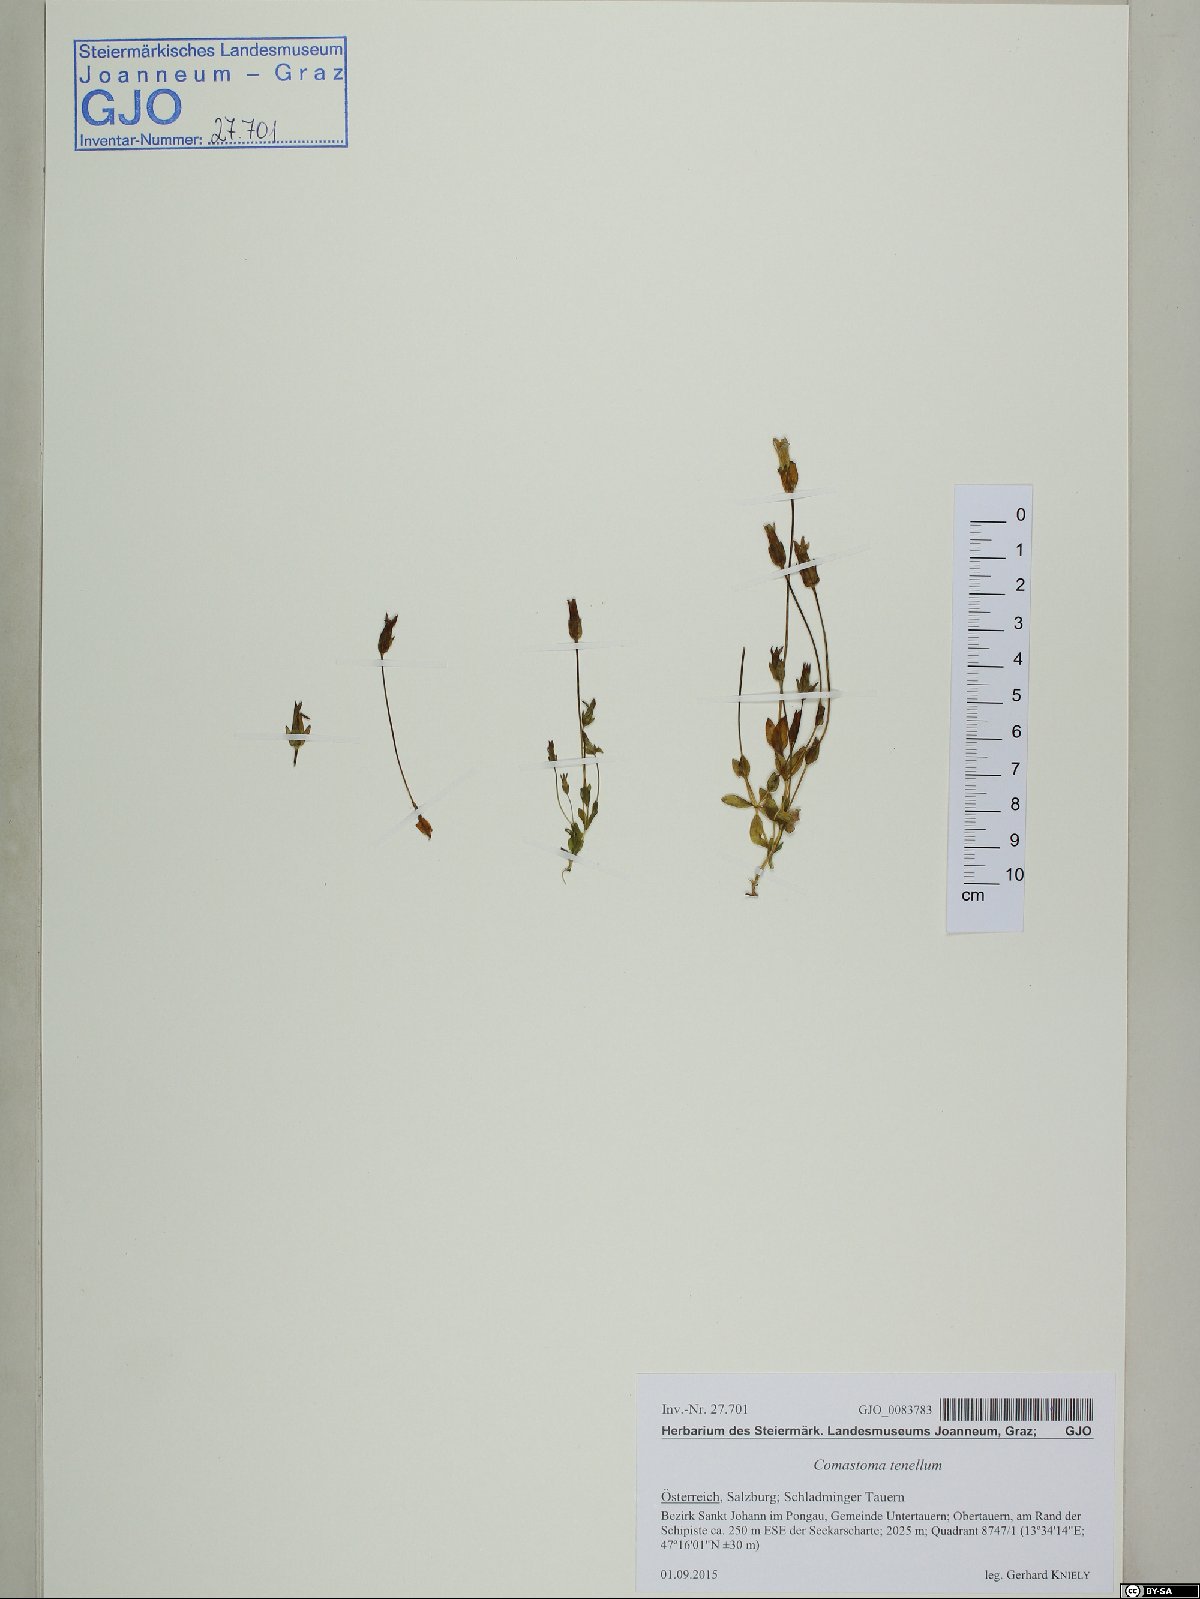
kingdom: Plantae
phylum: Tracheophyta
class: Magnoliopsida
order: Gentianales
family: Gentianaceae
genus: Comastoma
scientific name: Comastoma tenellum
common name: Dane's dwarf gentian
